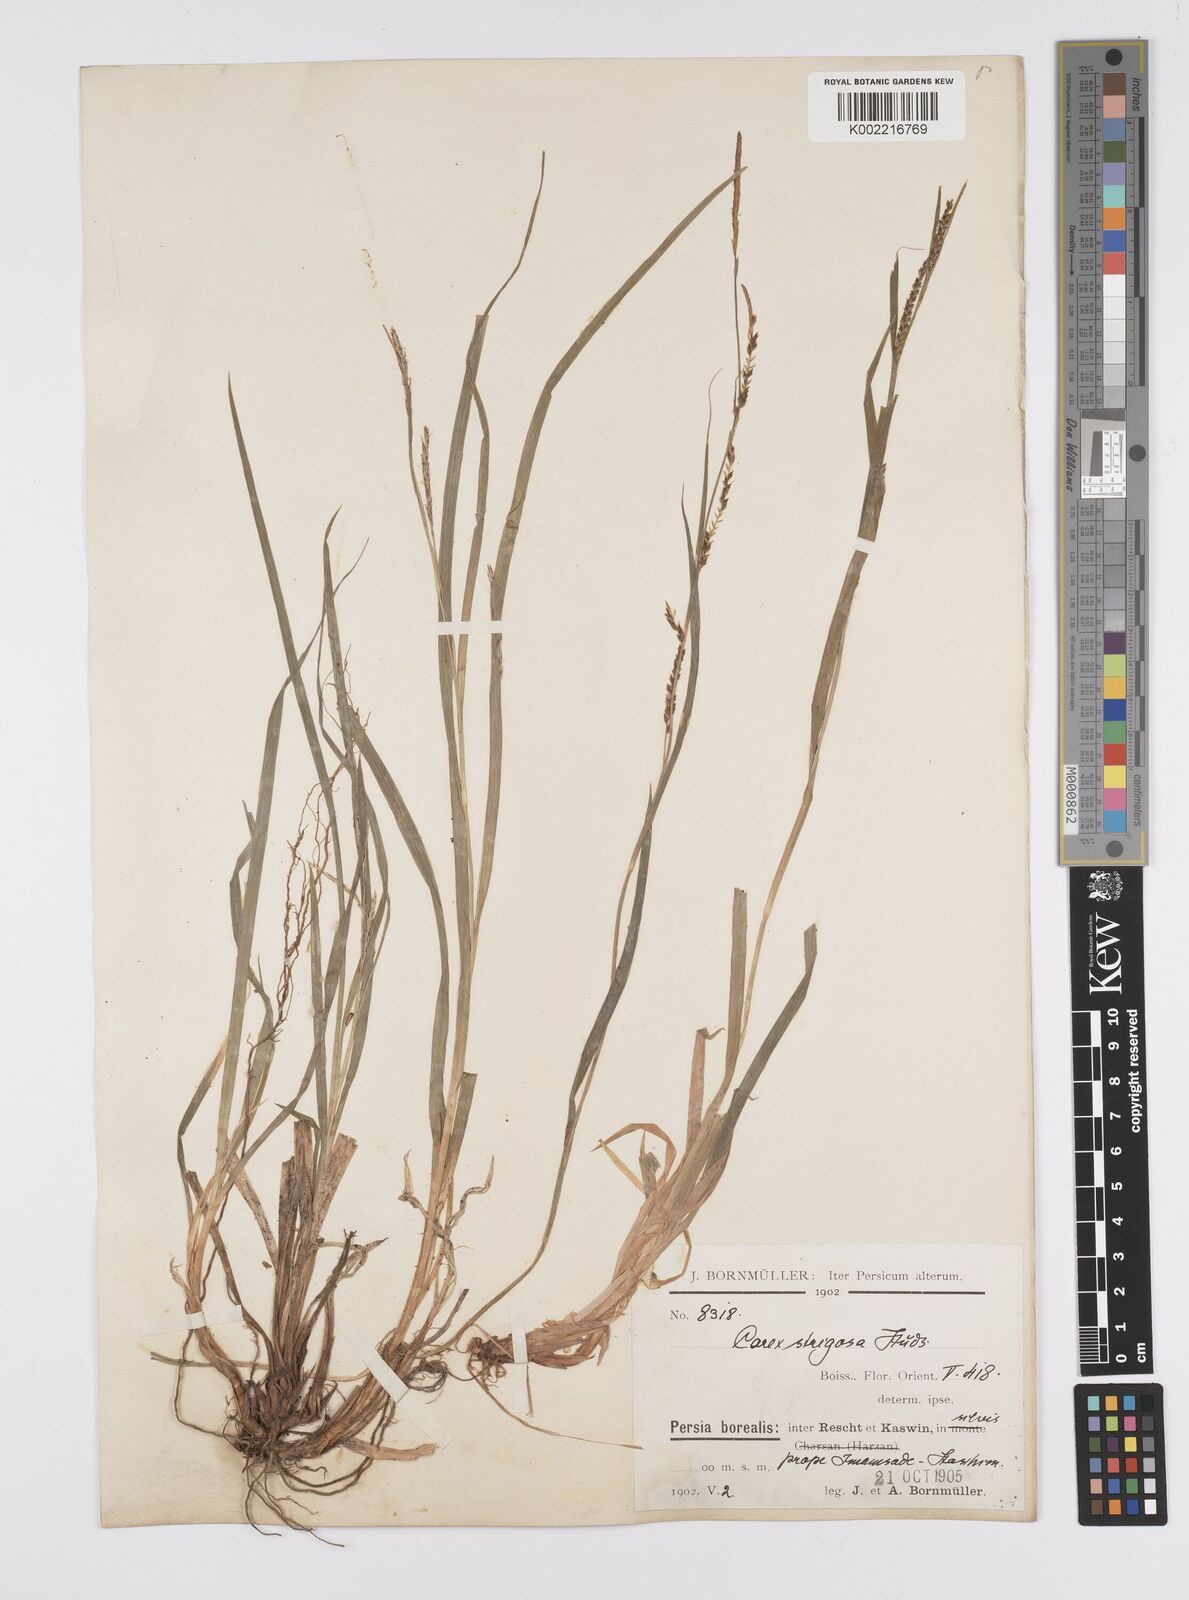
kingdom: Plantae
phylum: Tracheophyta
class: Liliopsida
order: Poales
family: Cyperaceae
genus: Carex
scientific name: Carex strigosa
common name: Thin-spiked wood-sedge
